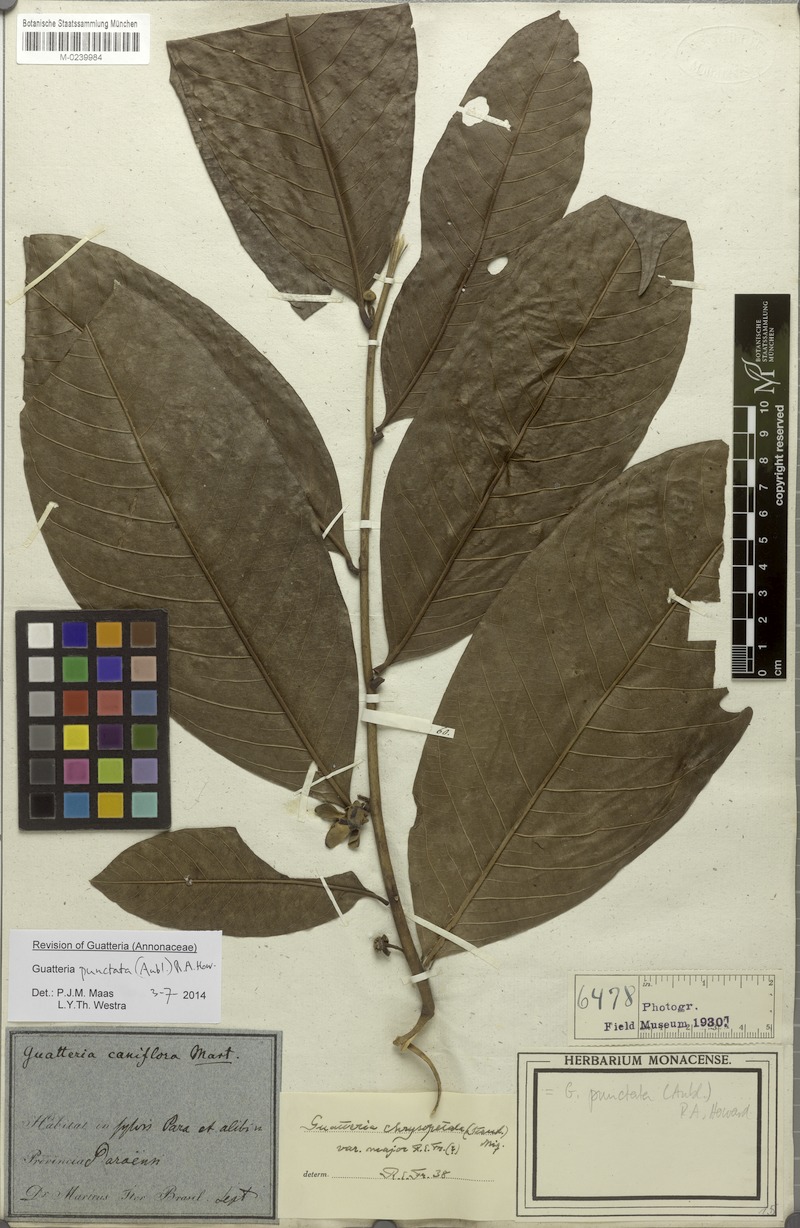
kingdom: Plantae
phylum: Tracheophyta
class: Magnoliopsida
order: Magnoliales
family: Annonaceae
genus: Guatteria
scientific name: Guatteria punctata
